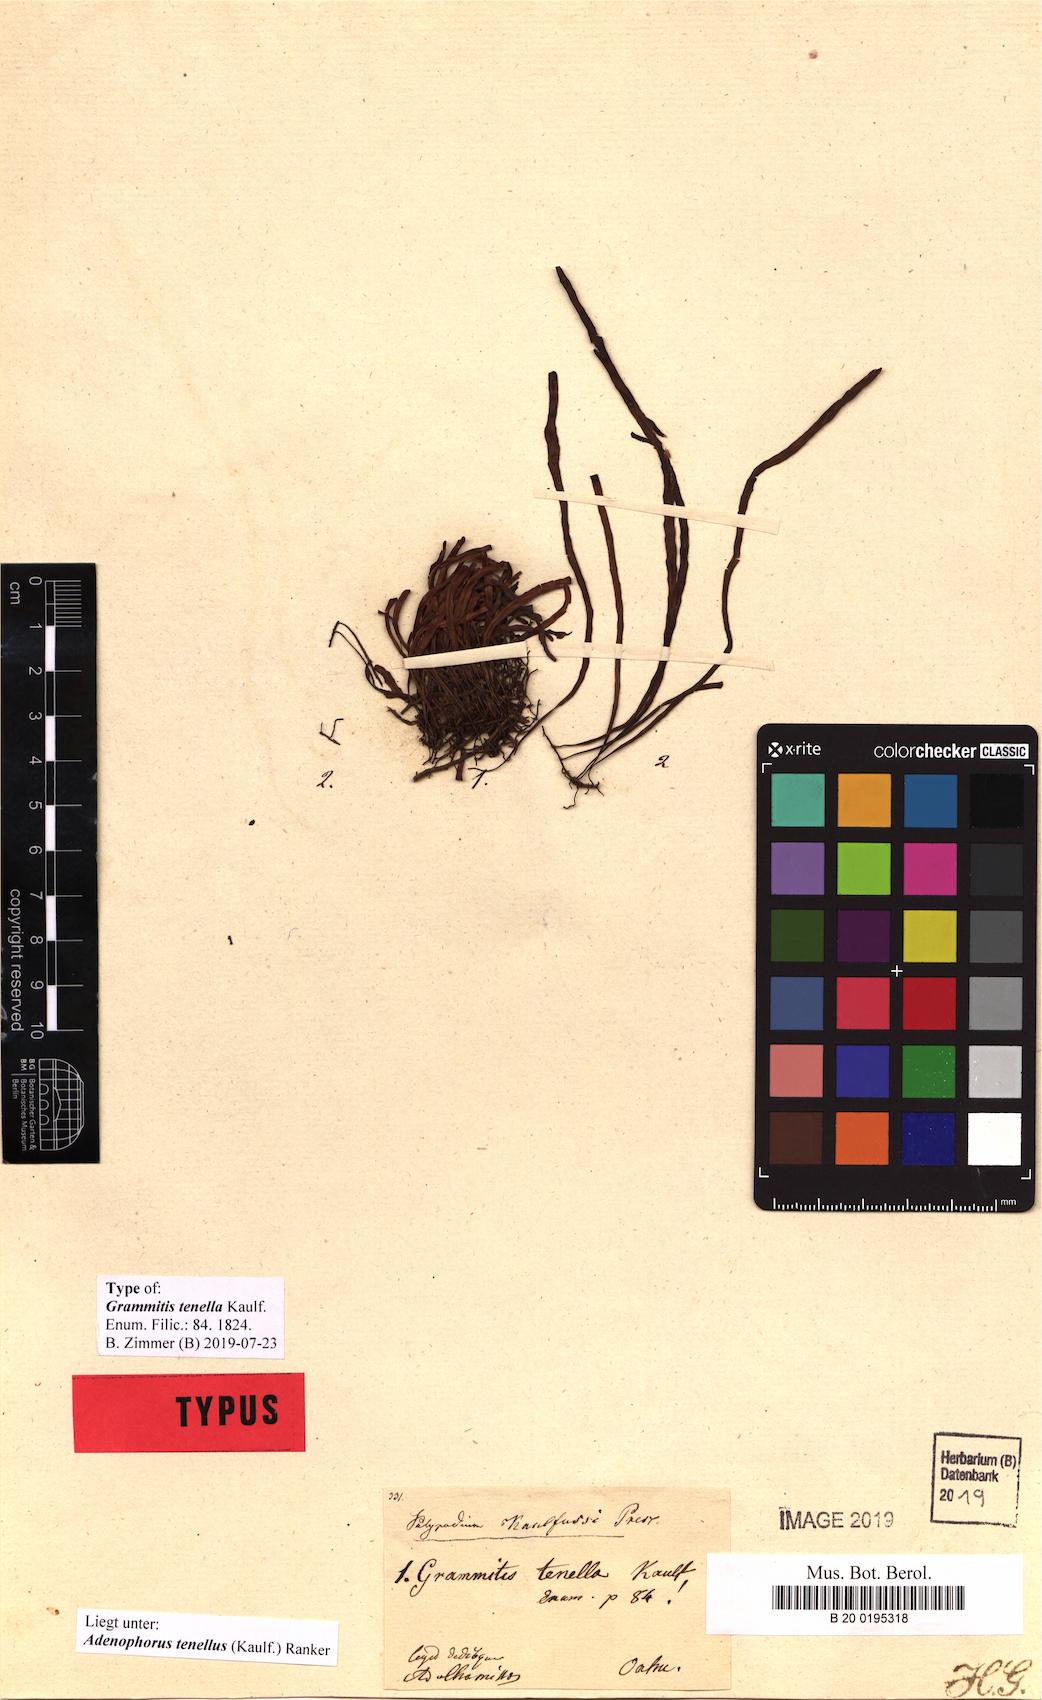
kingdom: Plantae
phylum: Tracheophyta
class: Polypodiopsida
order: Polypodiales
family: Polypodiaceae
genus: Adenophorus
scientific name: Adenophorus tenellus
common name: Kolokolo
